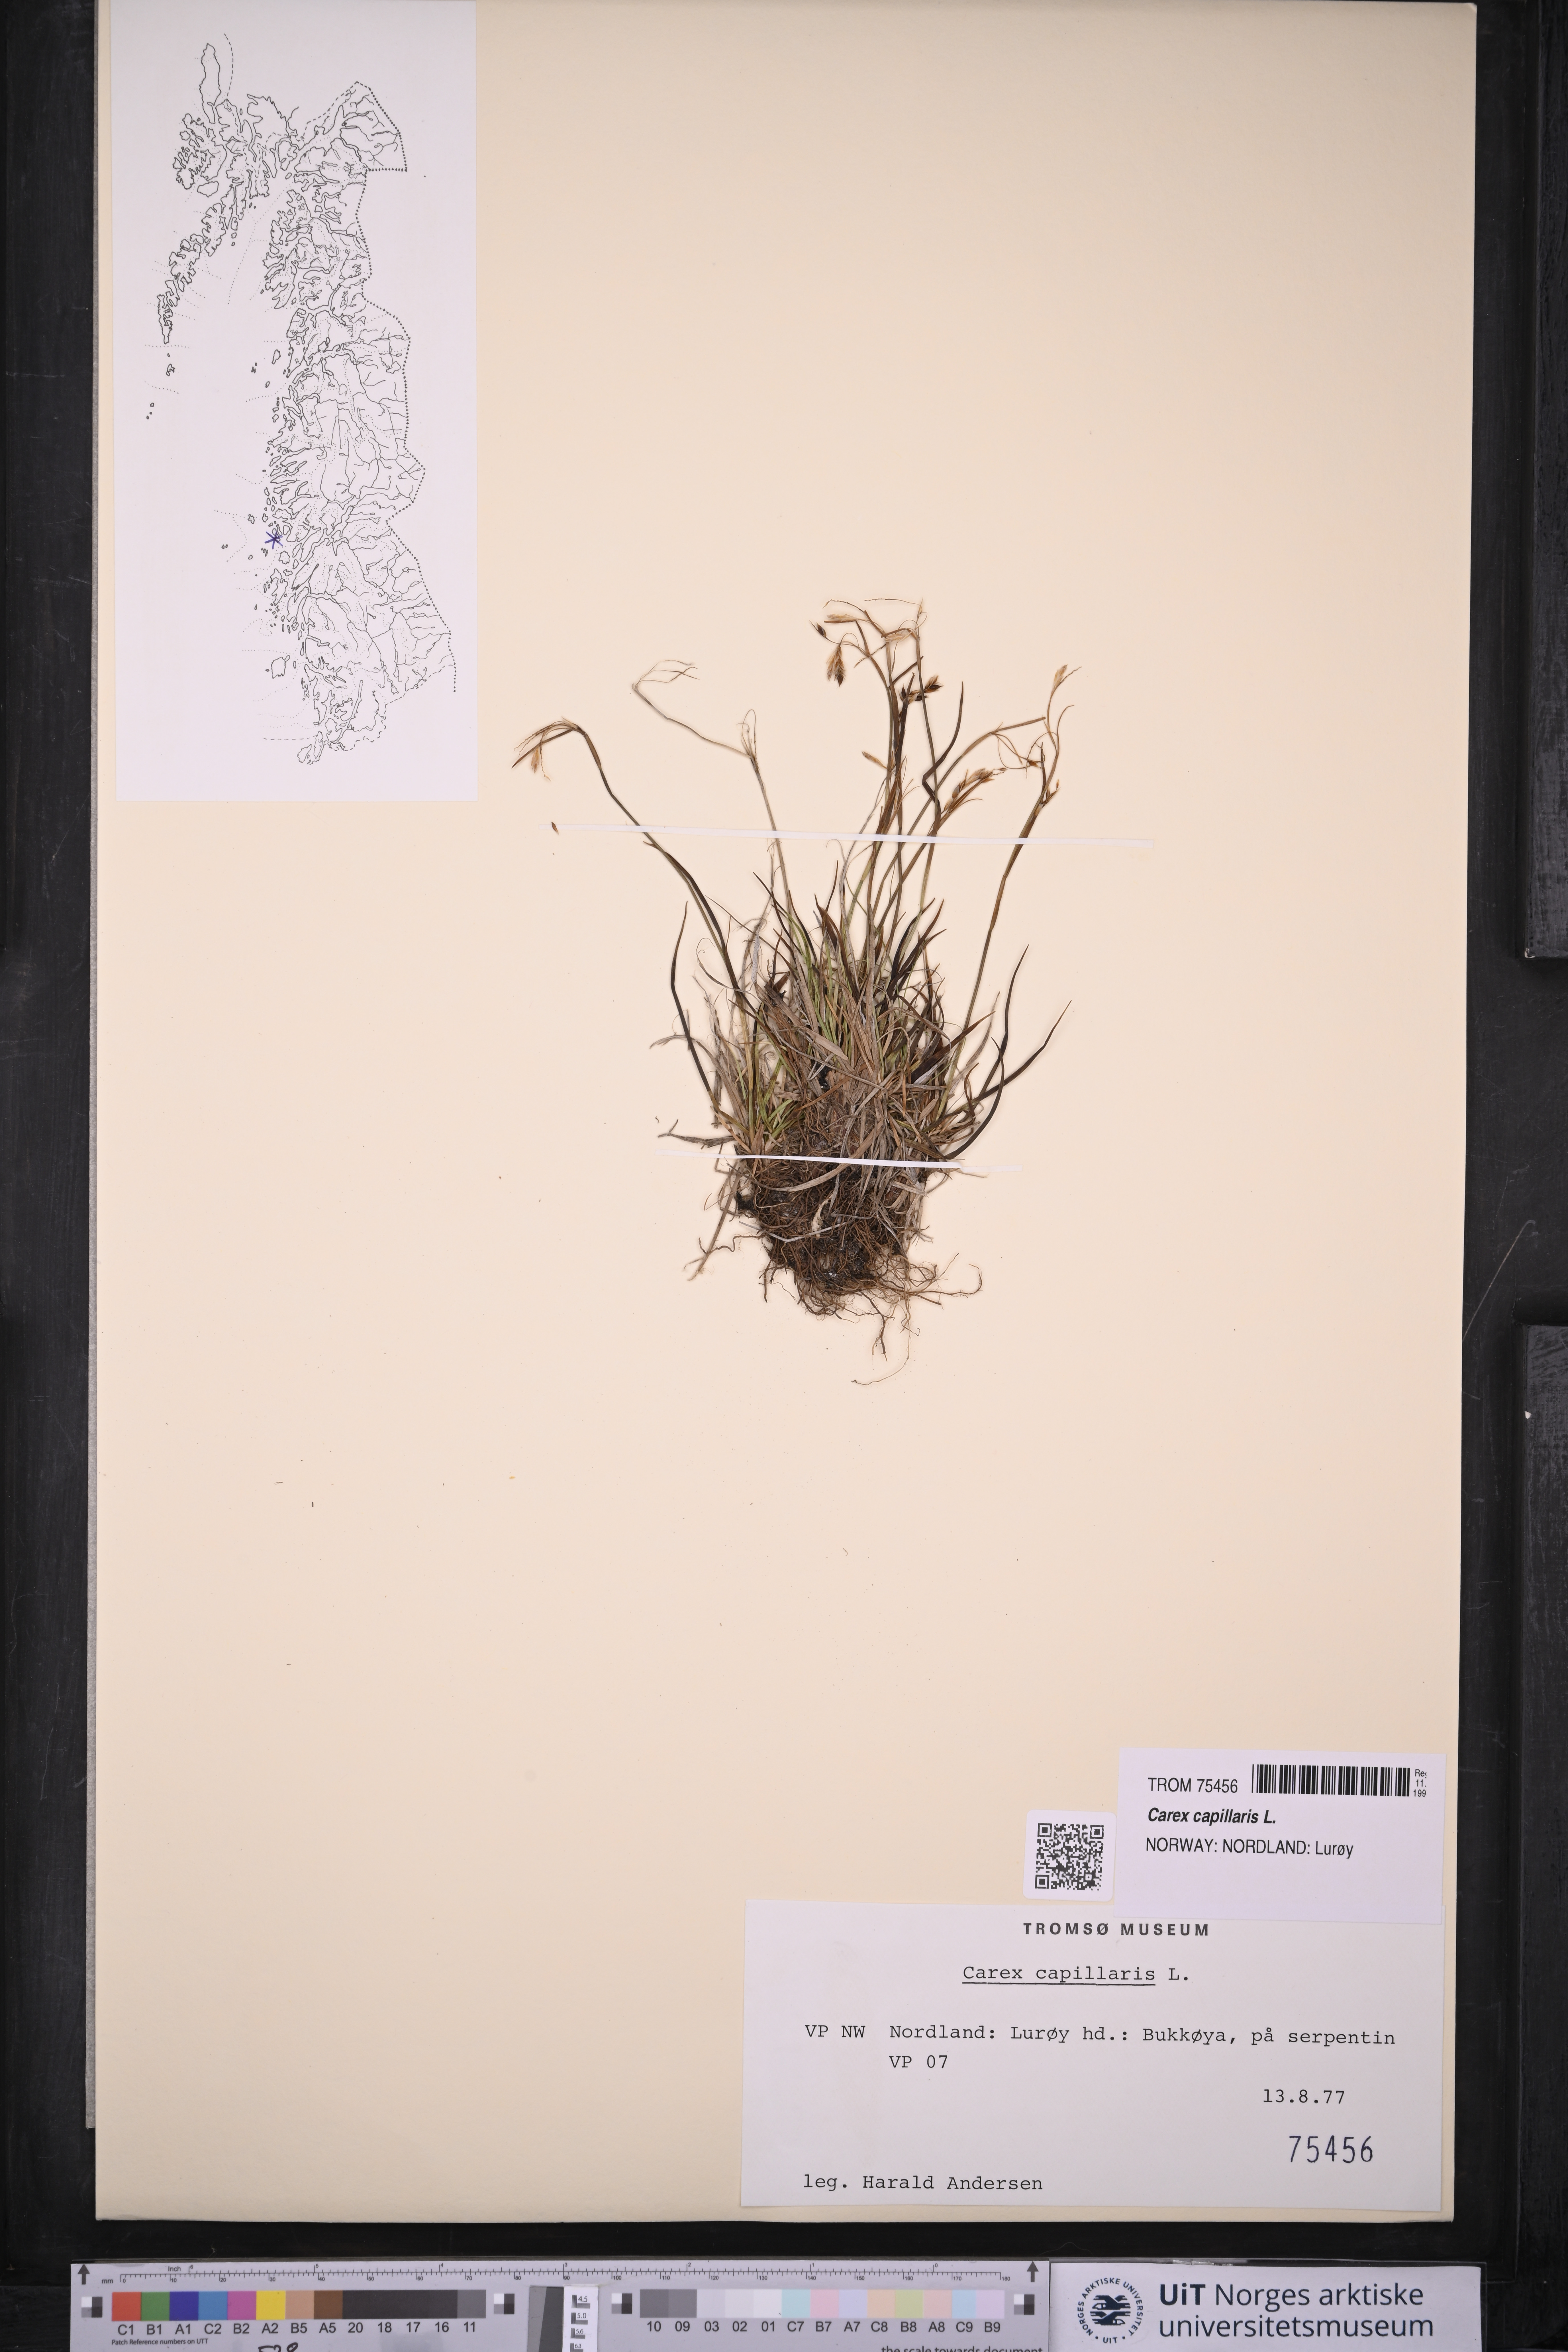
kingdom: Plantae
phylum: Tracheophyta
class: Liliopsida
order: Poales
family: Cyperaceae
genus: Carex
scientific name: Carex capillaris
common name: Hair sedge
